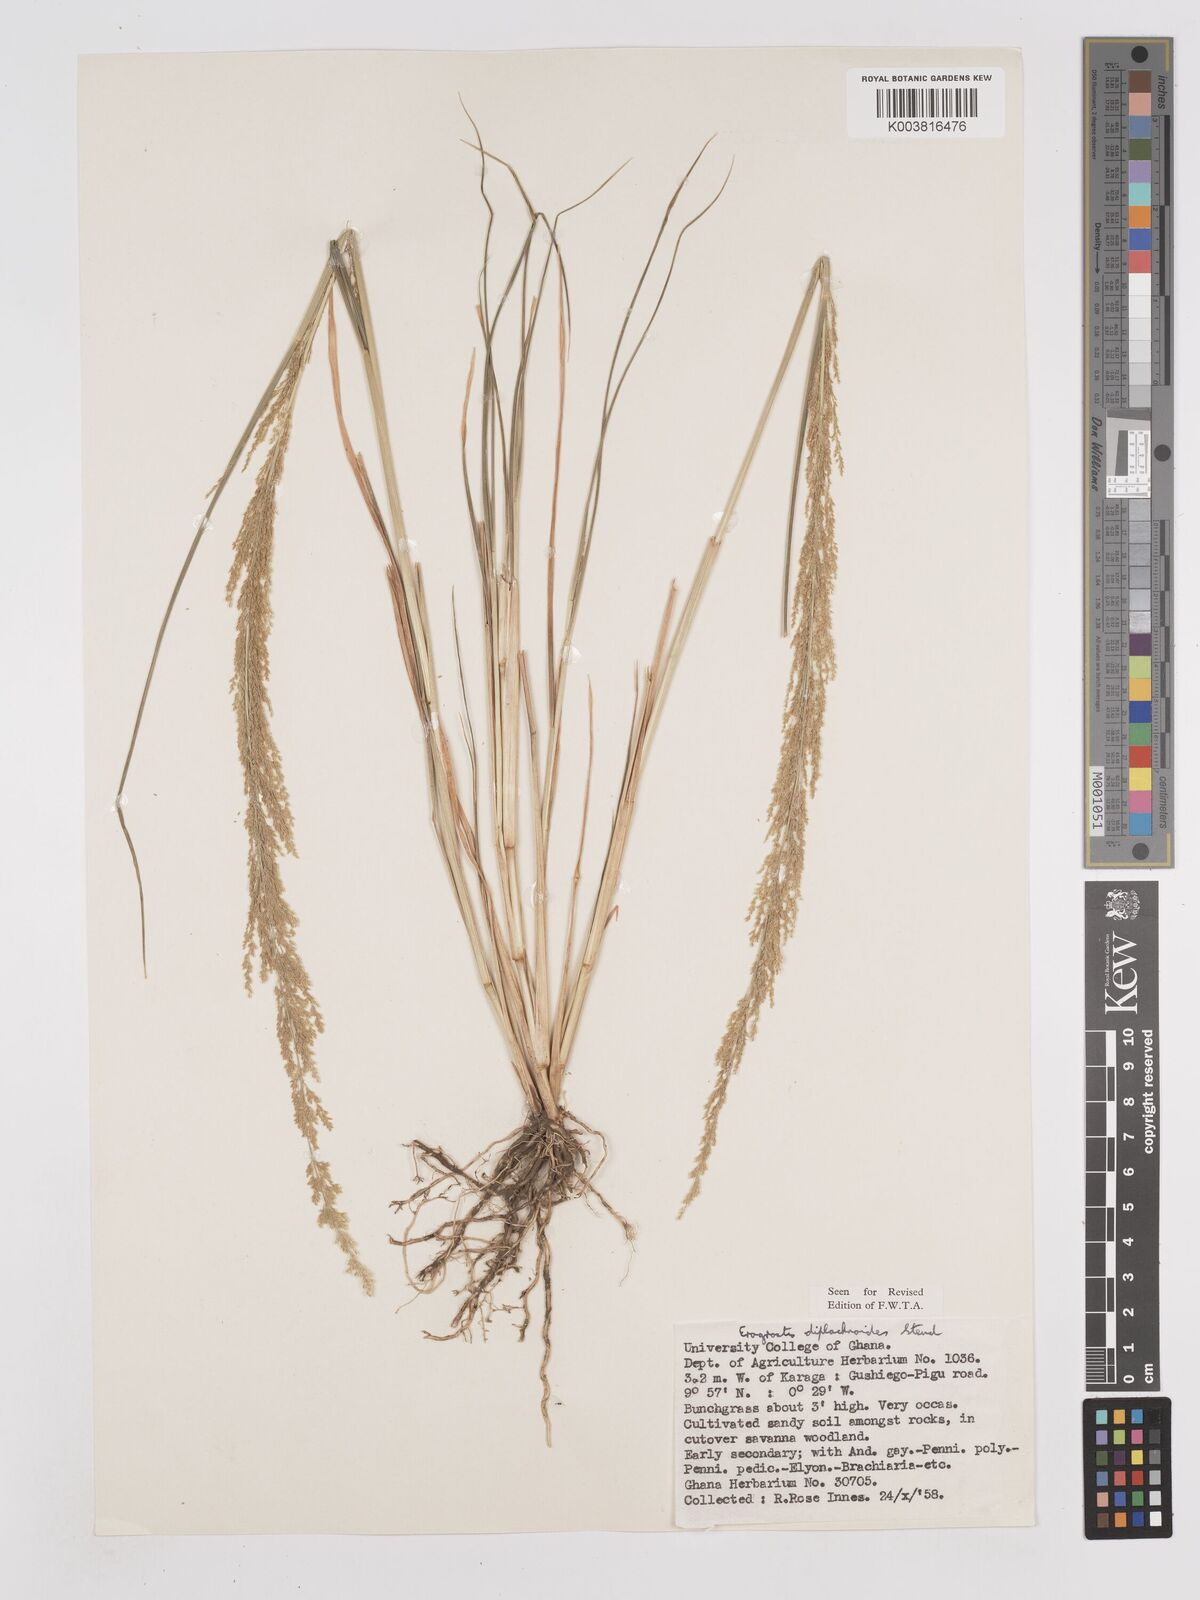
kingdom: Plantae
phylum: Tracheophyta
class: Liliopsida
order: Poales
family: Poaceae
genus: Eragrostis
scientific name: Eragrostis japonica
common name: Pond lovegrass
